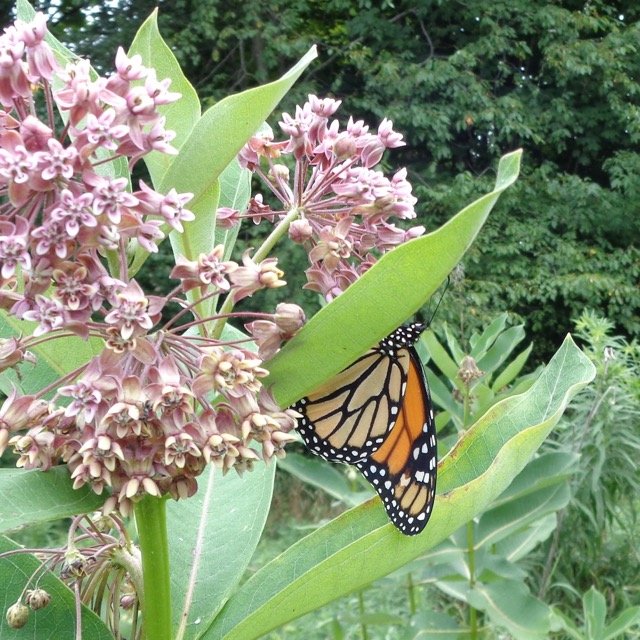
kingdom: Animalia
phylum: Arthropoda
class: Insecta
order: Lepidoptera
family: Nymphalidae
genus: Danaus
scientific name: Danaus plexippus
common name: Monarch
